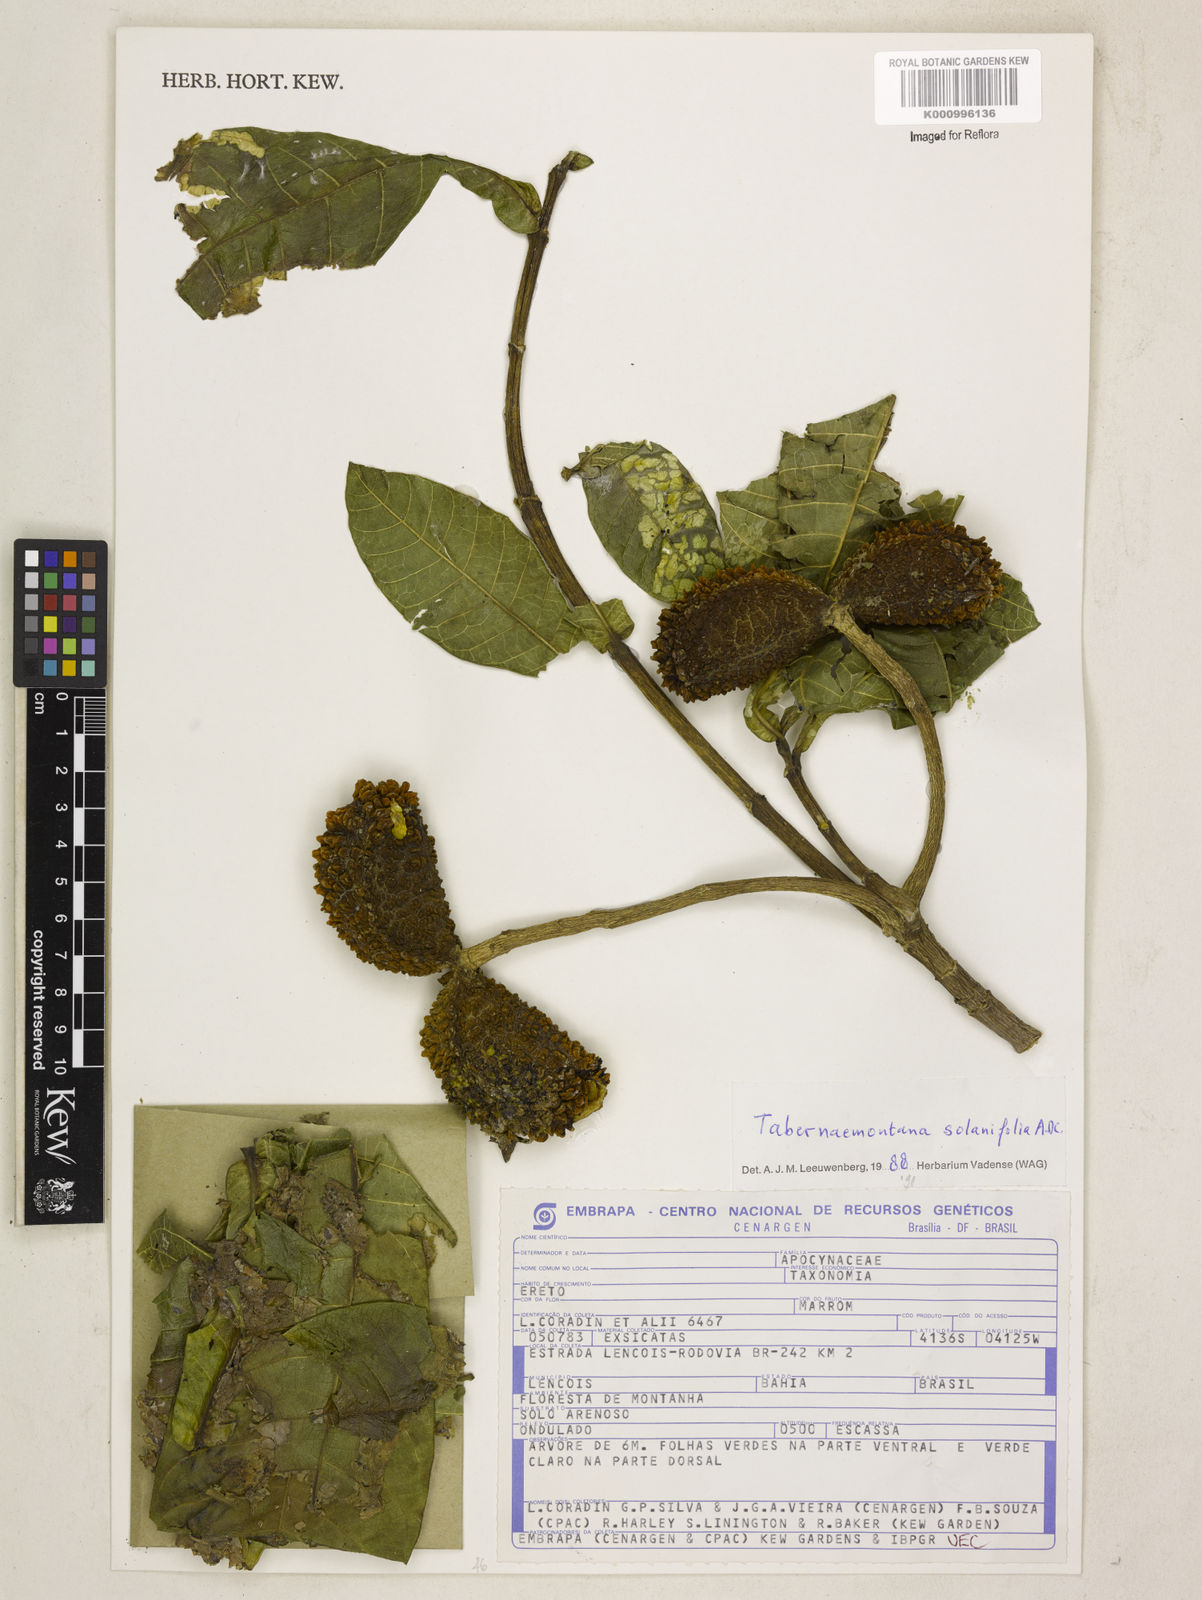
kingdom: Plantae
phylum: Tracheophyta
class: Magnoliopsida
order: Gentianales
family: Apocynaceae
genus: Tabernaemontana
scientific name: Tabernaemontana solanifolia
